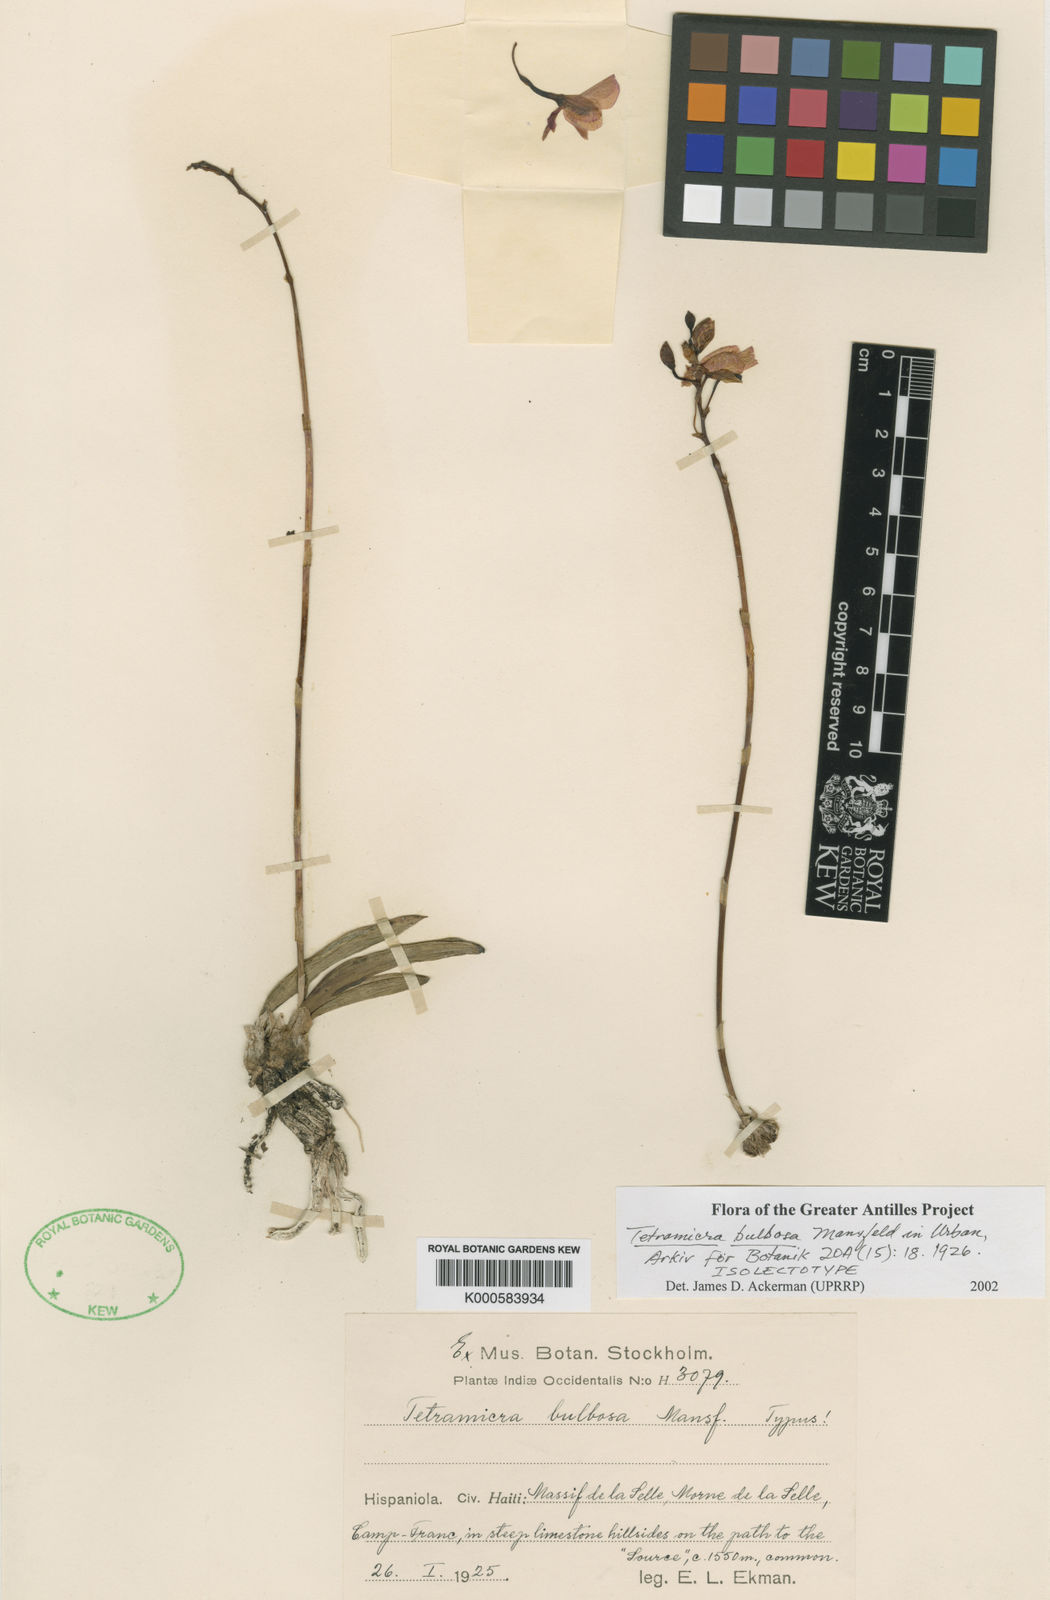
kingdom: Plantae
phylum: Tracheophyta
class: Liliopsida
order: Asparagales
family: Orchidaceae
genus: Tetramicra
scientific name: Tetramicra bulbosa
